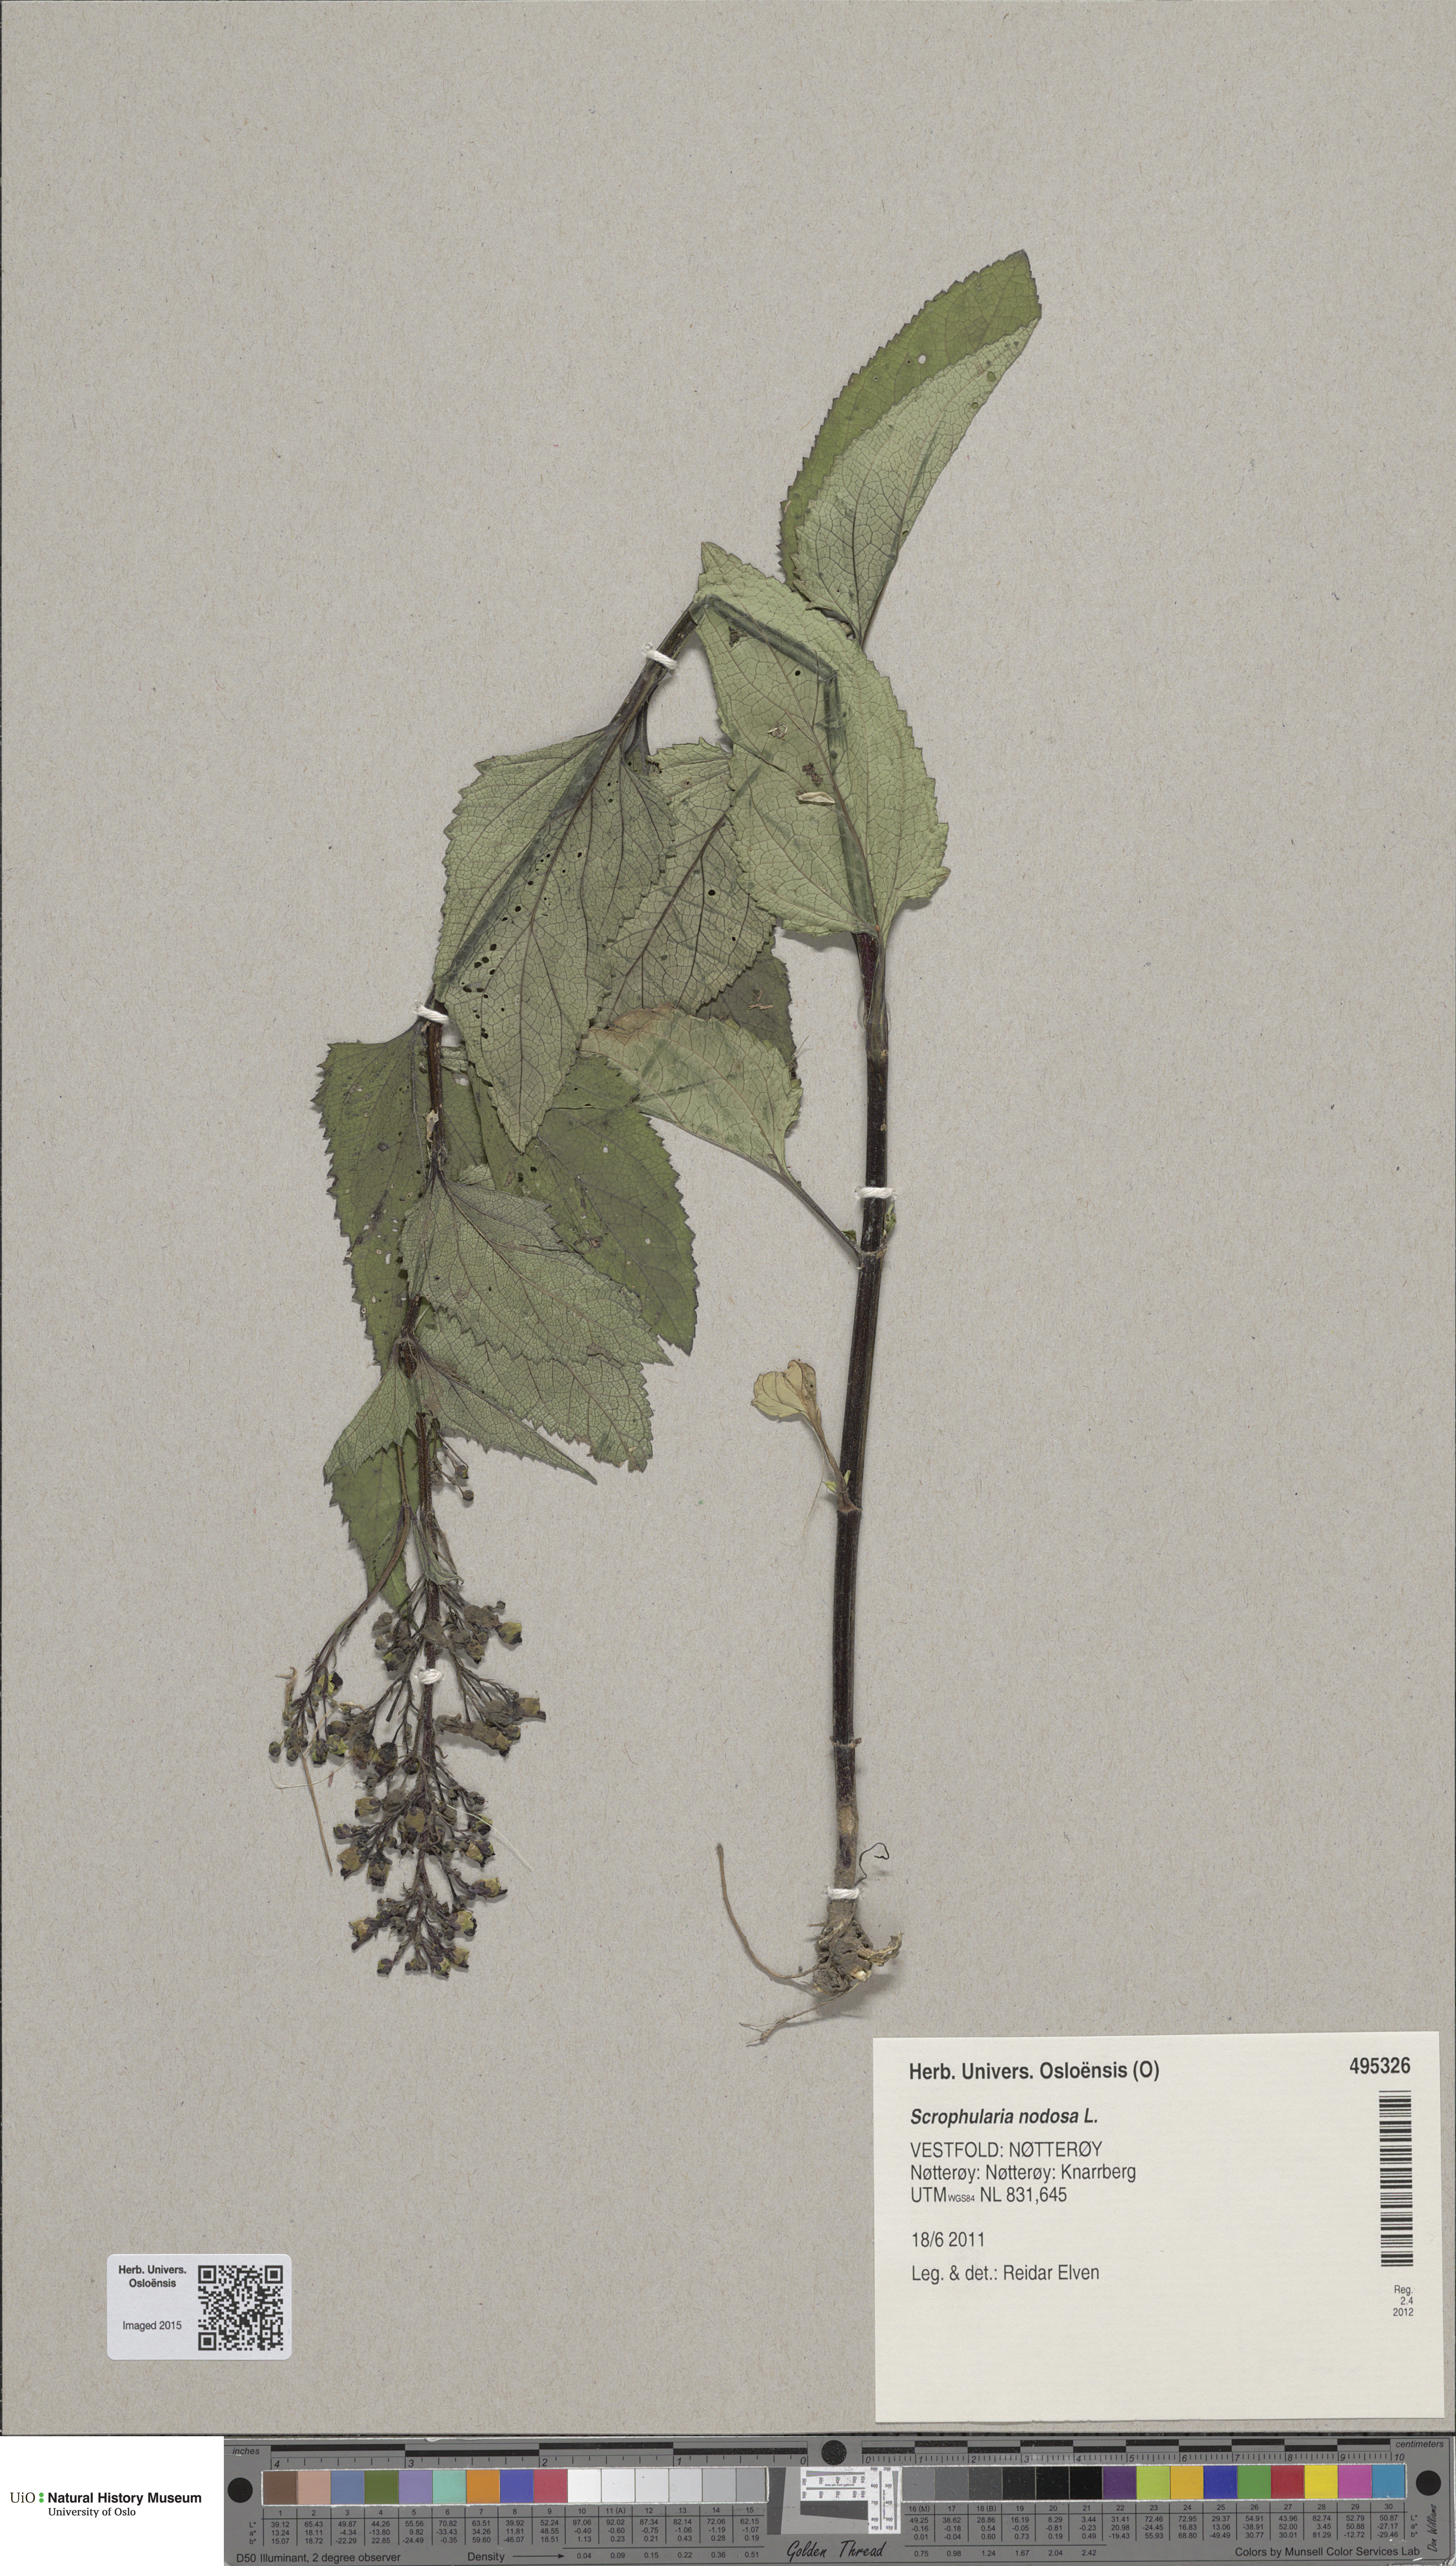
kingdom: Plantae
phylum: Tracheophyta
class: Magnoliopsida
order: Lamiales
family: Scrophulariaceae
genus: Scrophularia
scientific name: Scrophularia nodosa
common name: Common figwort
